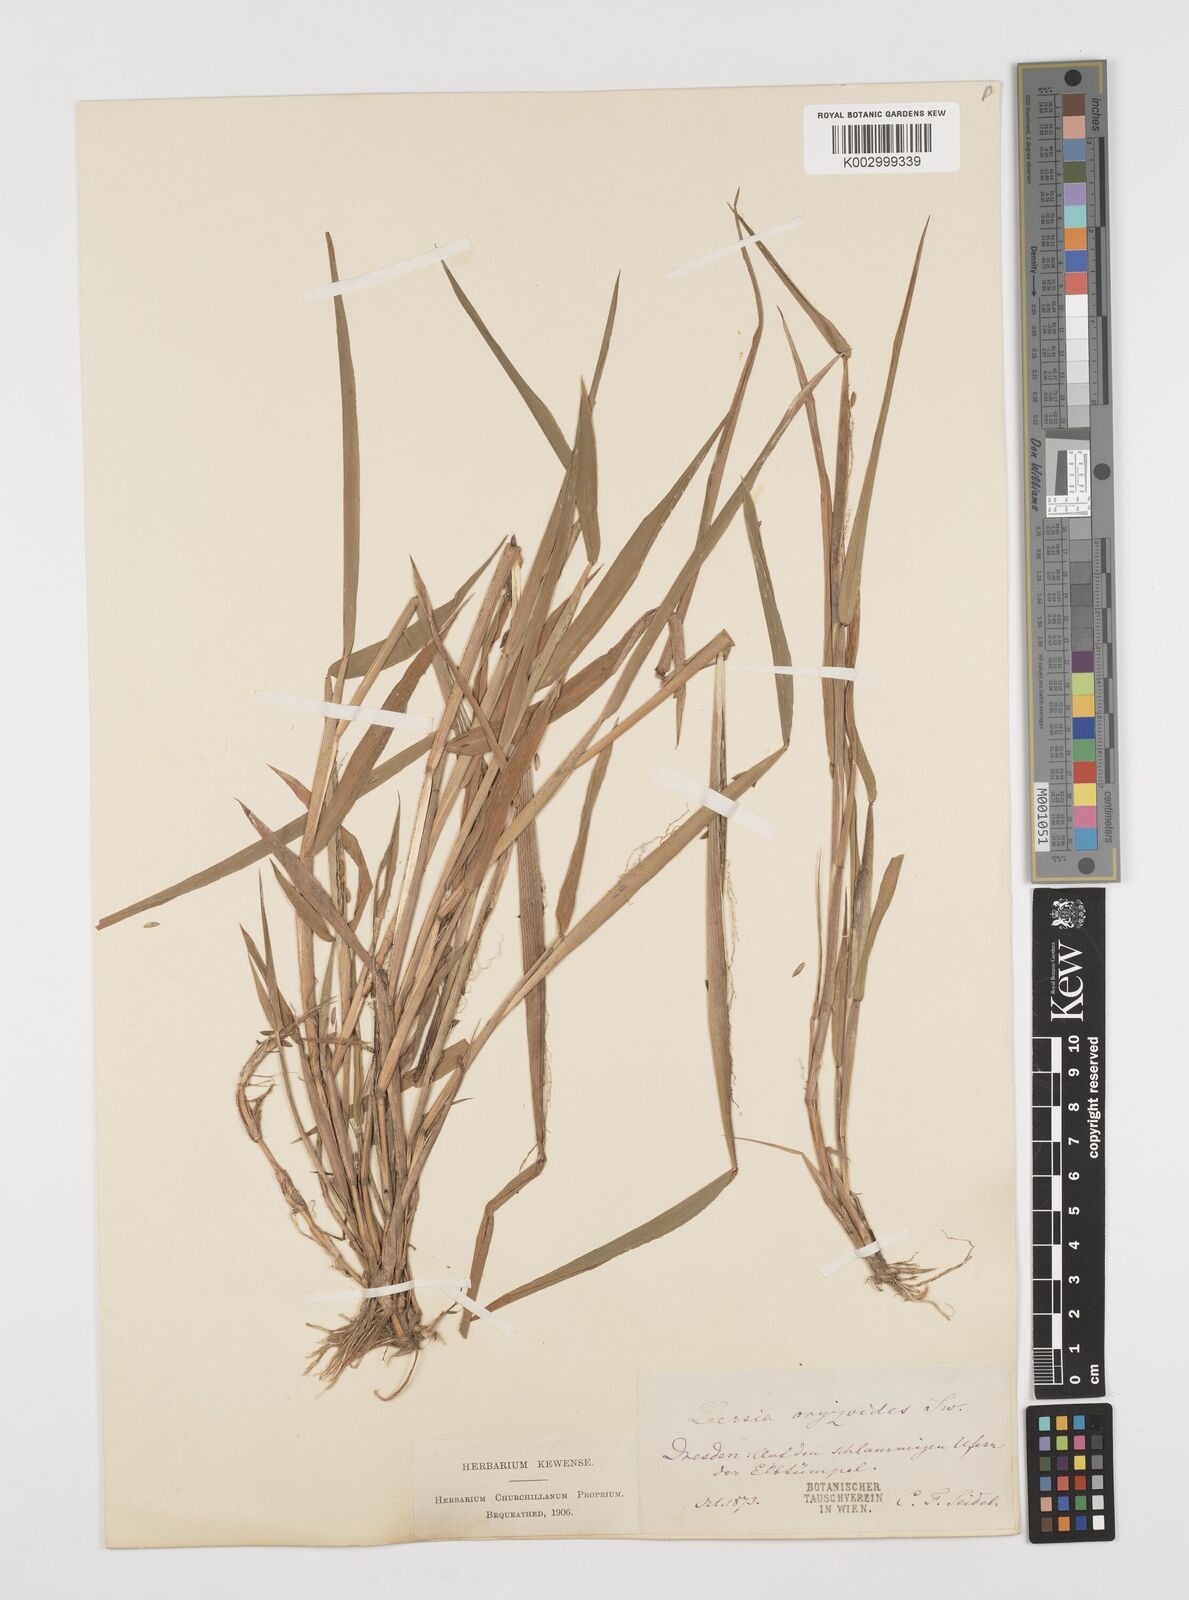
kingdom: Plantae
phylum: Tracheophyta
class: Liliopsida
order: Poales
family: Poaceae
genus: Leersia
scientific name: Leersia oryzoides
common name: Cut-grass
